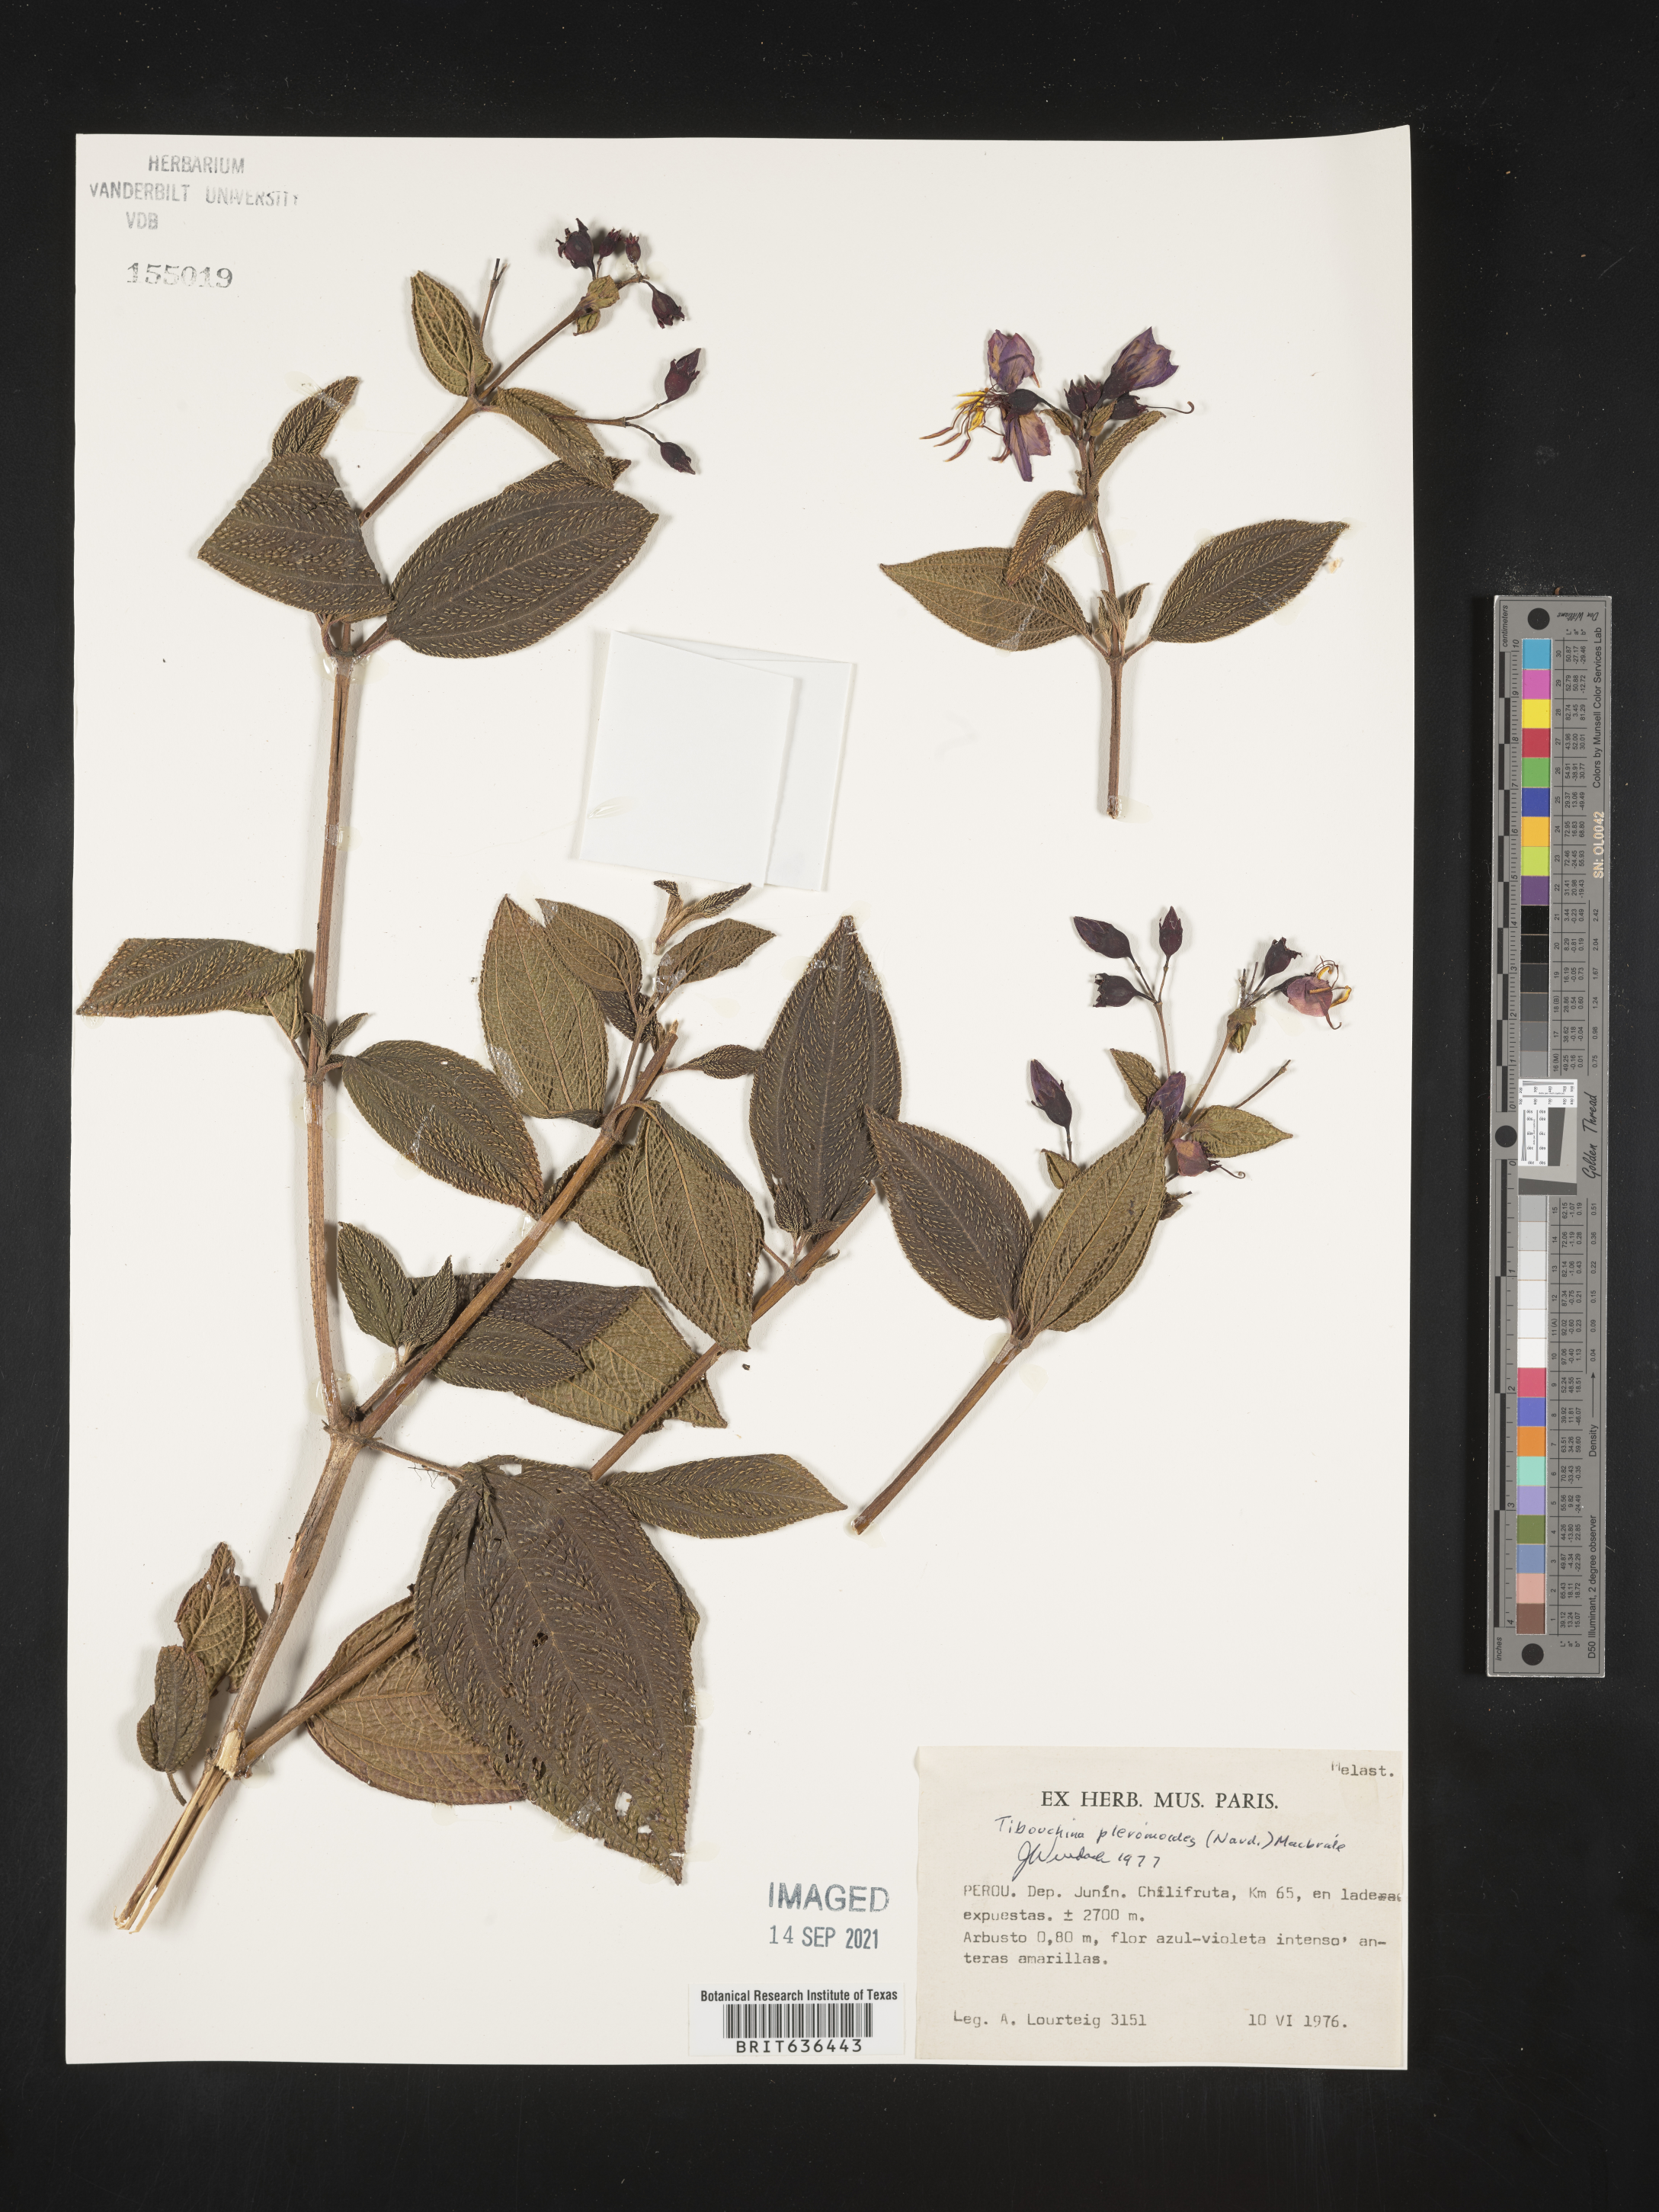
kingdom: Plantae
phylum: Tracheophyta
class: Magnoliopsida
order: Myrtales
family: Melastomataceae
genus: Tibouchina
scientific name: Tibouchina
